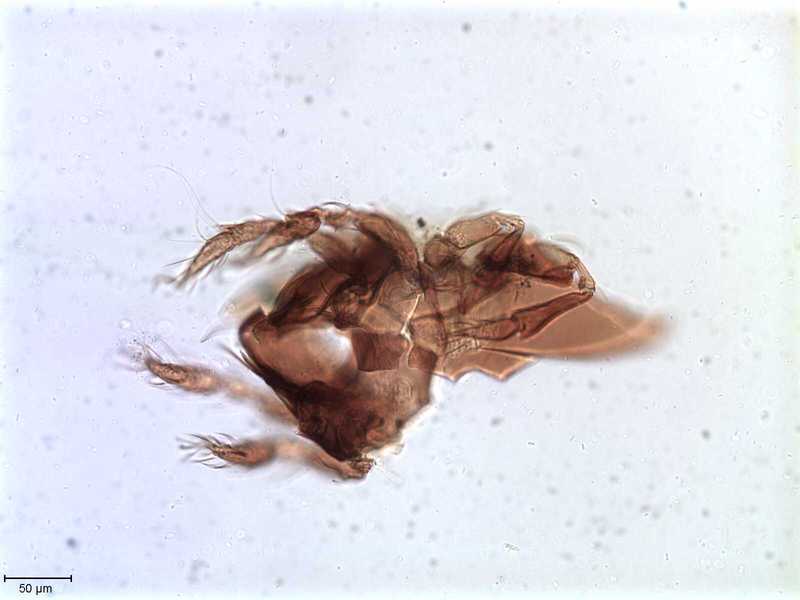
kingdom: Animalia
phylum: Arthropoda
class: Arachnida
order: Sarcoptiformes
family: Tegoribatidae
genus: Plakoribates
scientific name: Plakoribates multicuspidatus
